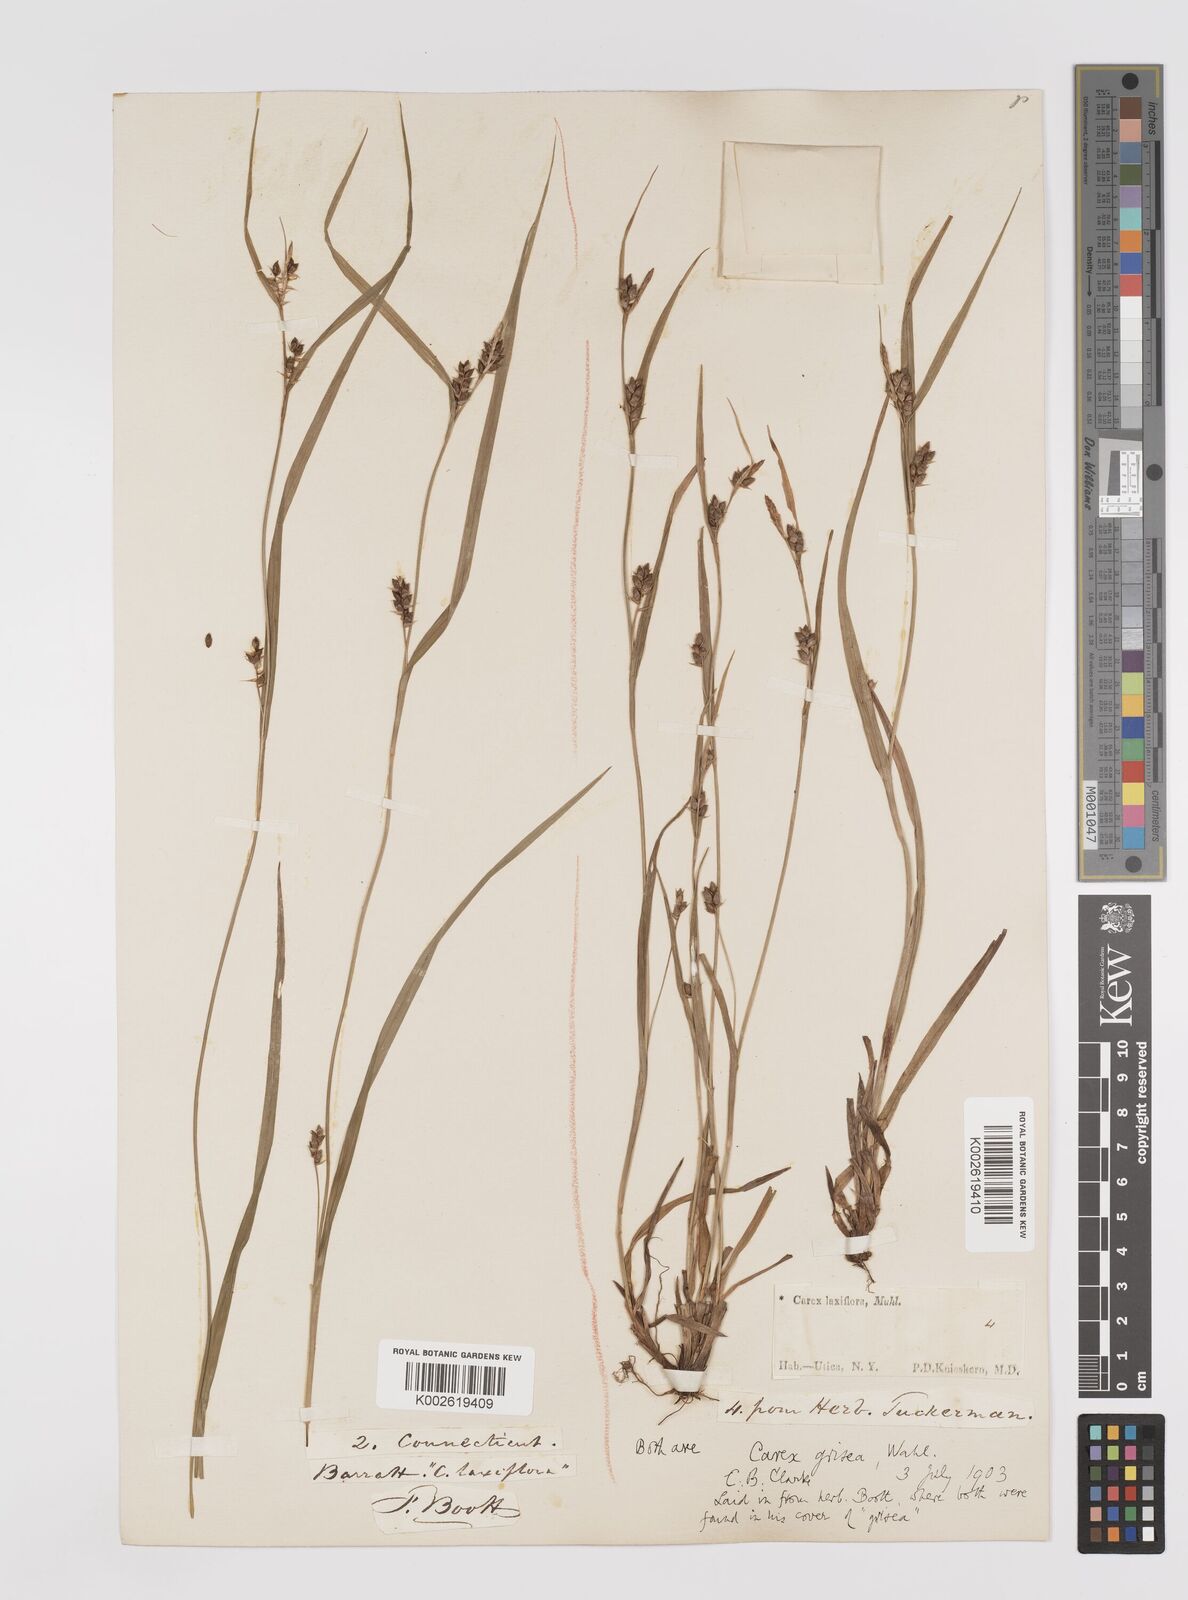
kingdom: Plantae
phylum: Tracheophyta
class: Liliopsida
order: Poales
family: Cyperaceae
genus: Carex
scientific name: Carex grisea
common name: Eastern narrow-leaved sedge
